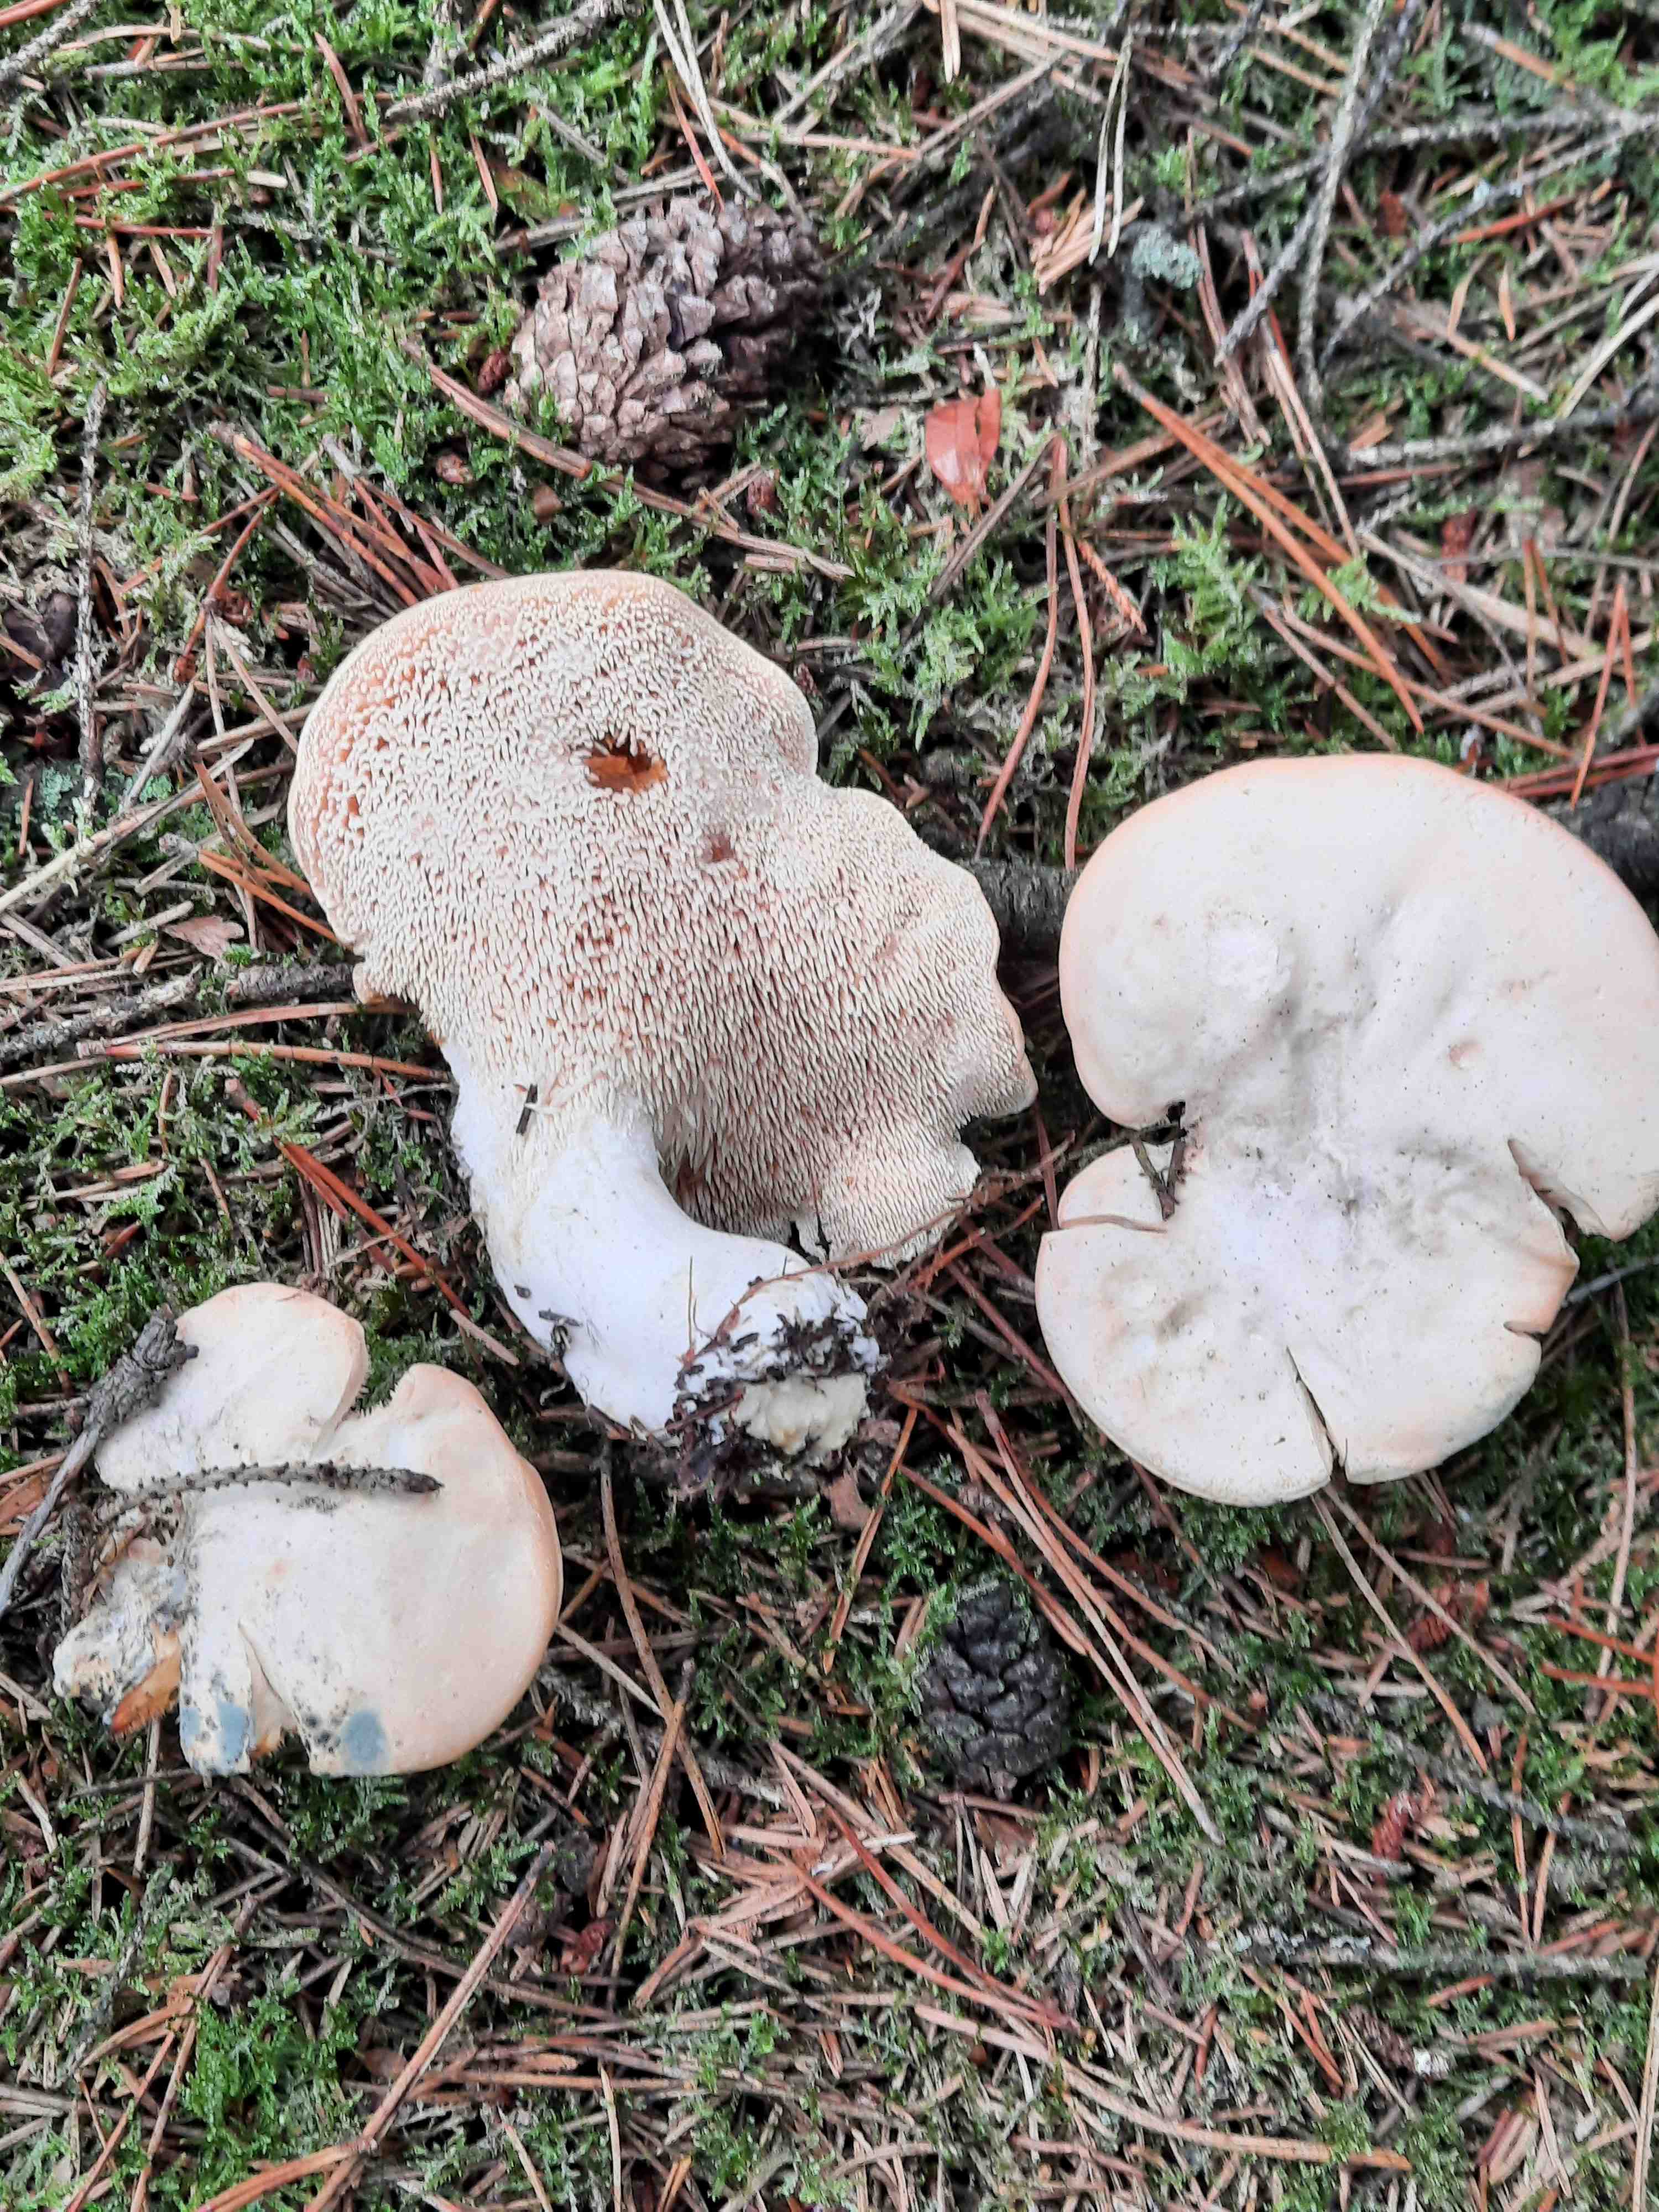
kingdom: Fungi
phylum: Basidiomycota
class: Agaricomycetes
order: Cantharellales
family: Hydnaceae
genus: Hydnum
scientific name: Hydnum repandum
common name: almindelig pigsvamp
